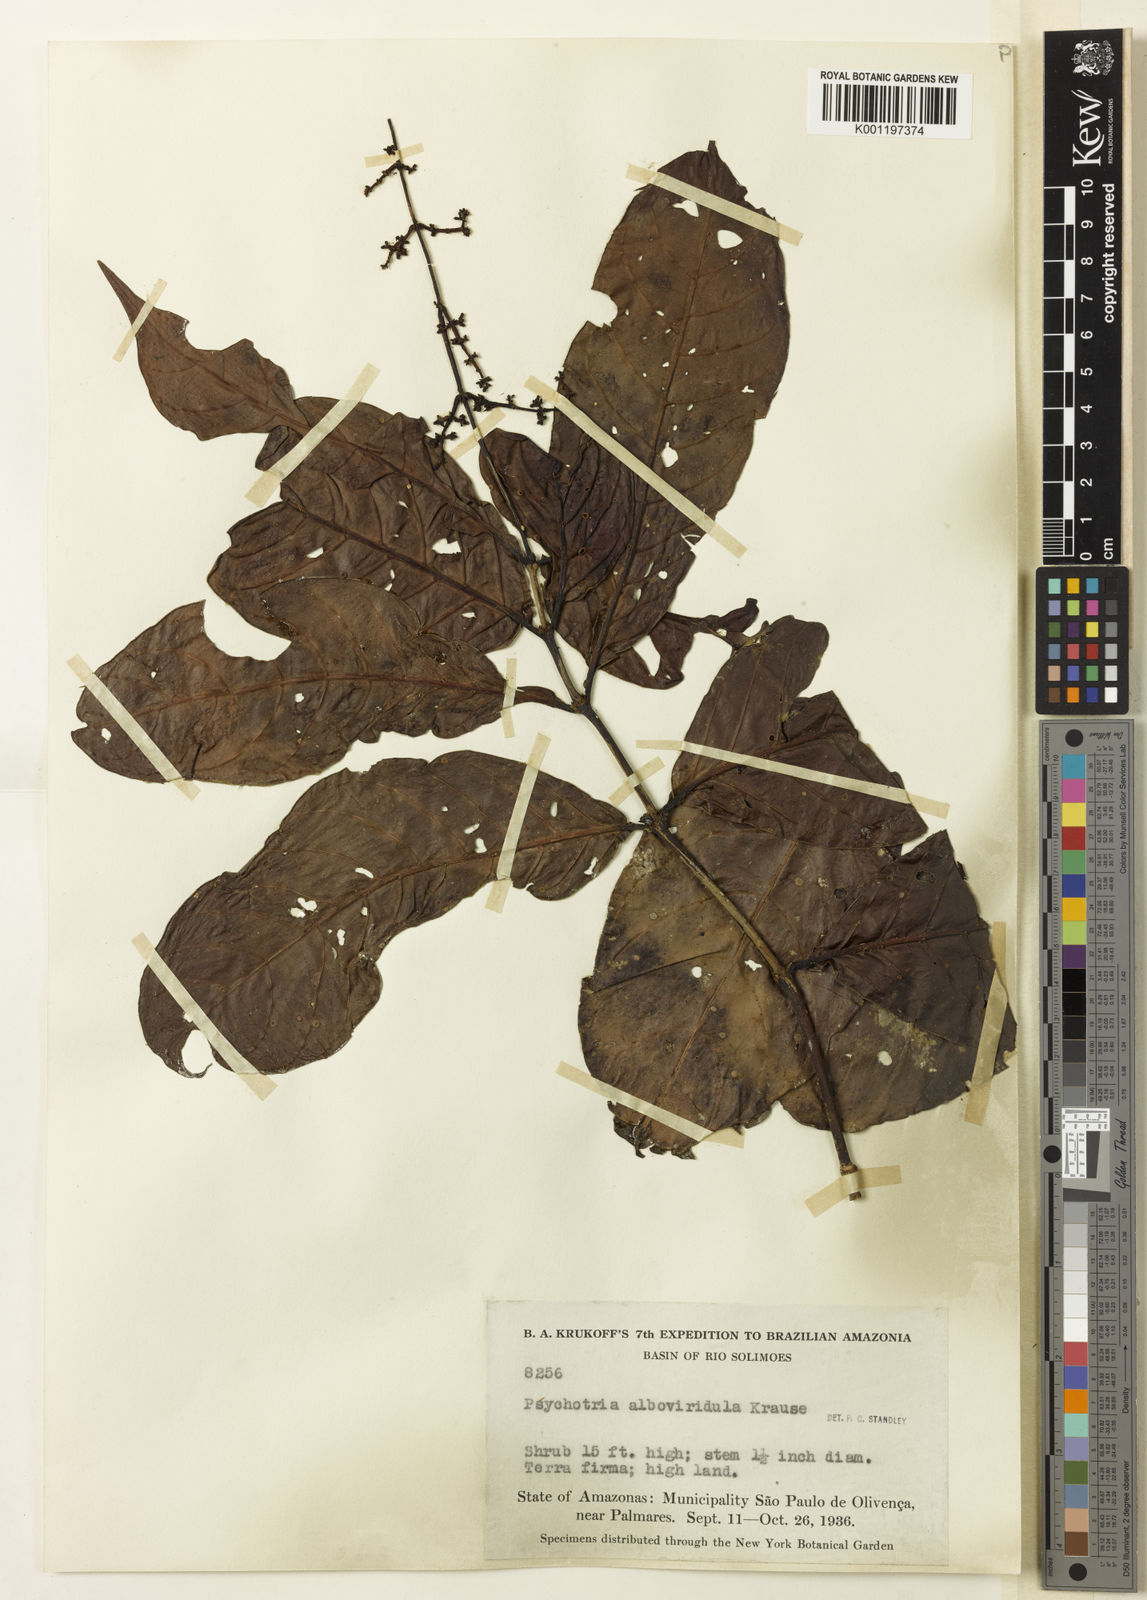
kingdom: Plantae
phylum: Tracheophyta
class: Magnoliopsida
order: Gentianales
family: Rubiaceae
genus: Psychotria
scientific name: Psychotria remota
